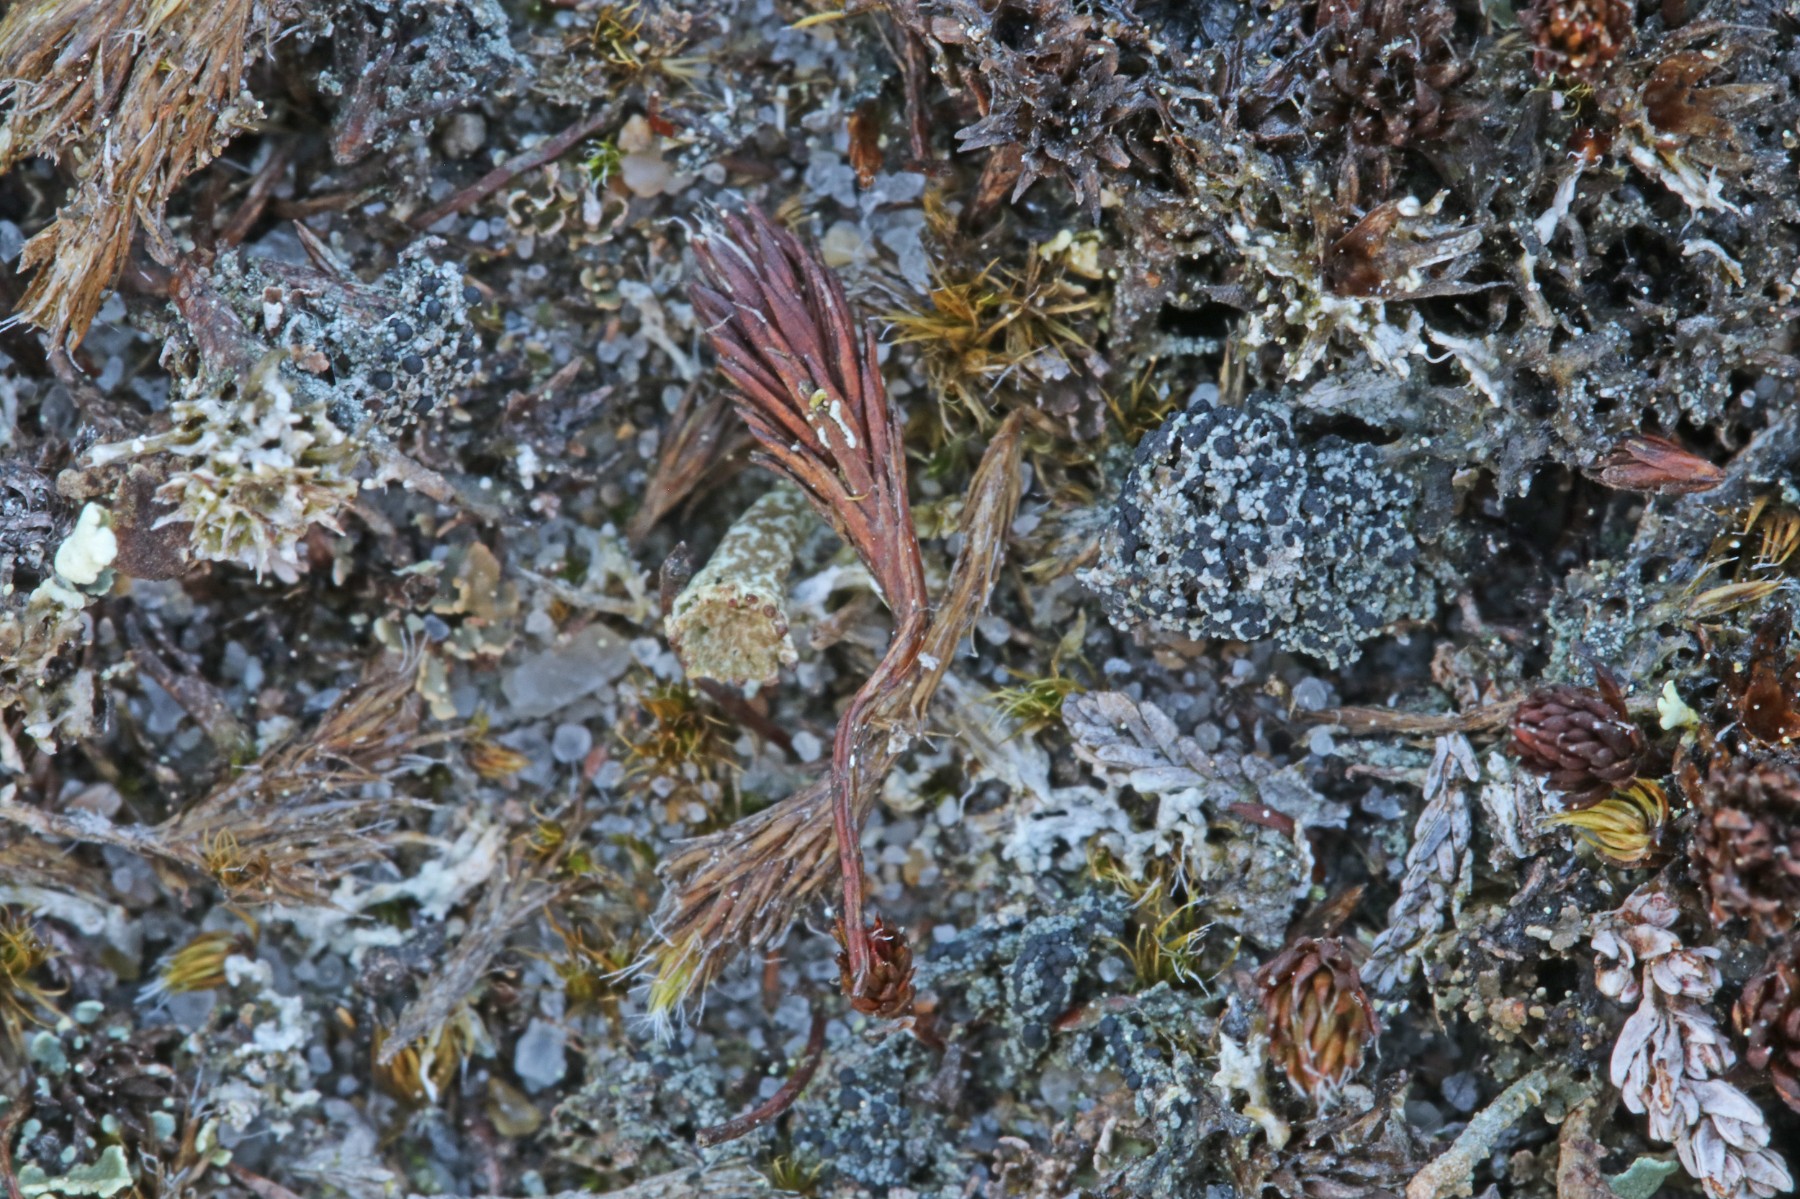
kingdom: Fungi
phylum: Ascomycota
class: Lecanoromycetes
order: Lecanorales
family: Byssolomataceae
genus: Micarea
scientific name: Micarea lignaria
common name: tørve-knaplav
